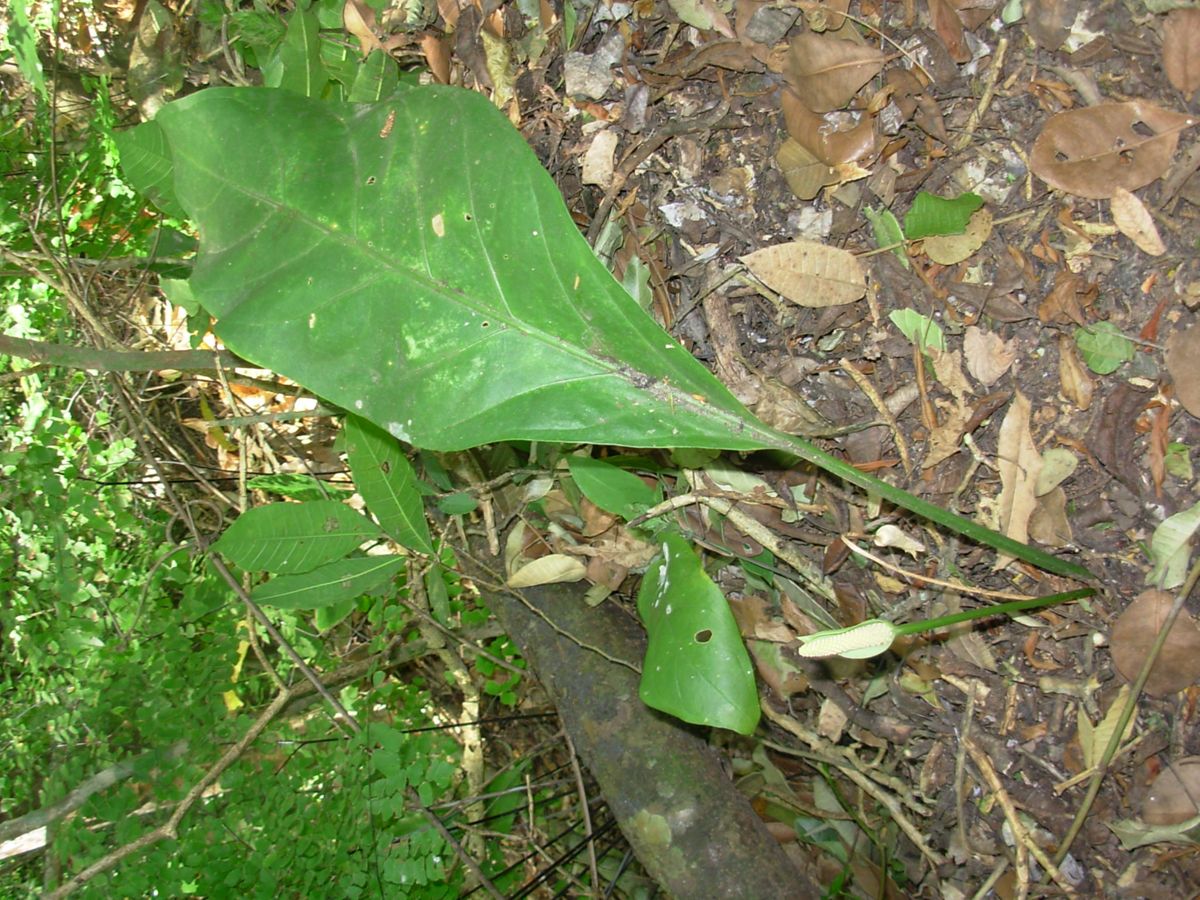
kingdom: Plantae
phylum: Tracheophyta
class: Liliopsida
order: Alismatales
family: Araceae
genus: Anthurium
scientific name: Anthurium salvadorense
